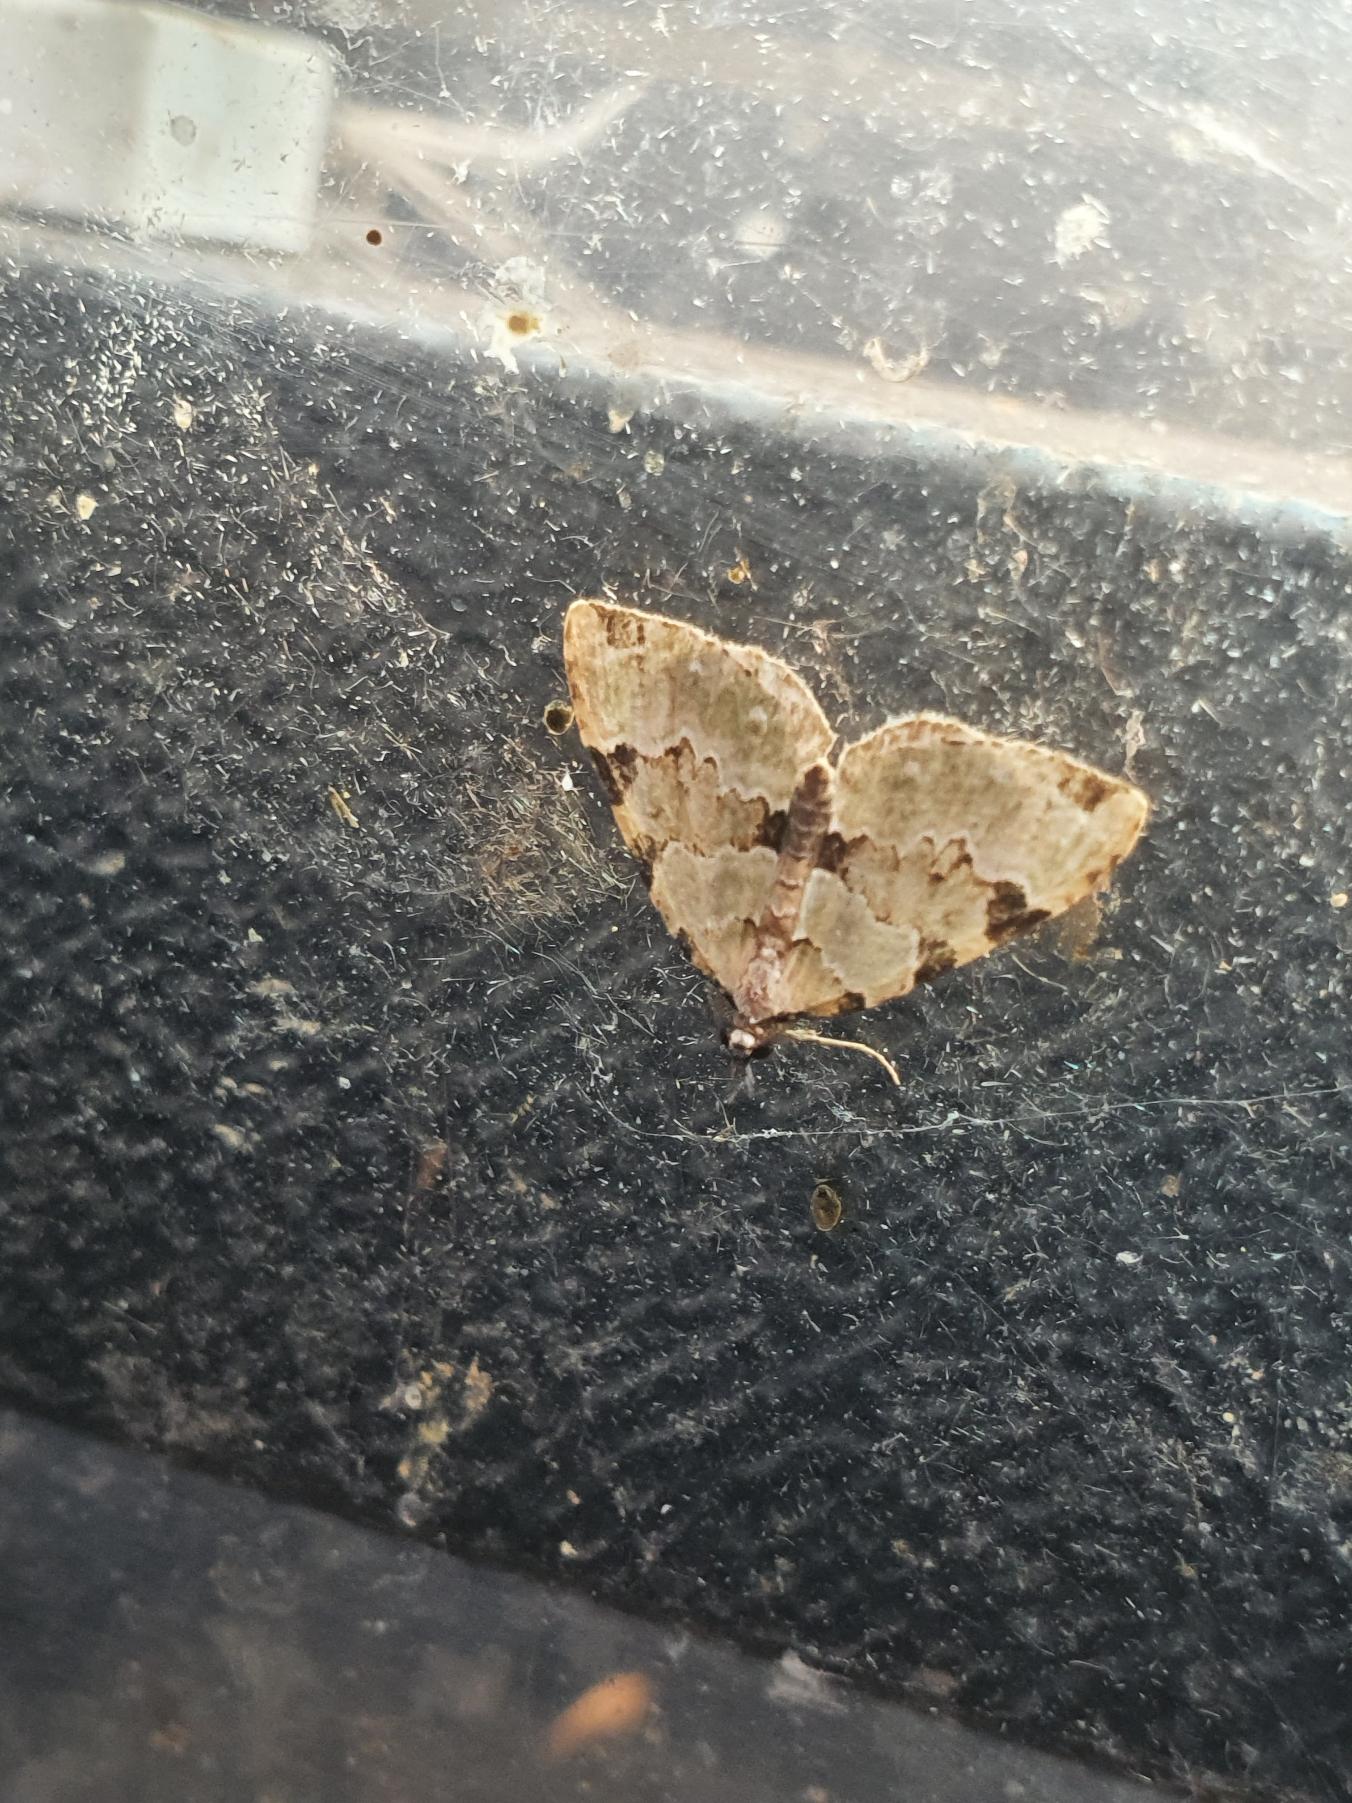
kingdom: Animalia
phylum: Arthropoda
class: Insecta
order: Lepidoptera
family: Geometridae
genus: Colostygia
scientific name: Colostygia pectinataria
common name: Grøn bladmåler
